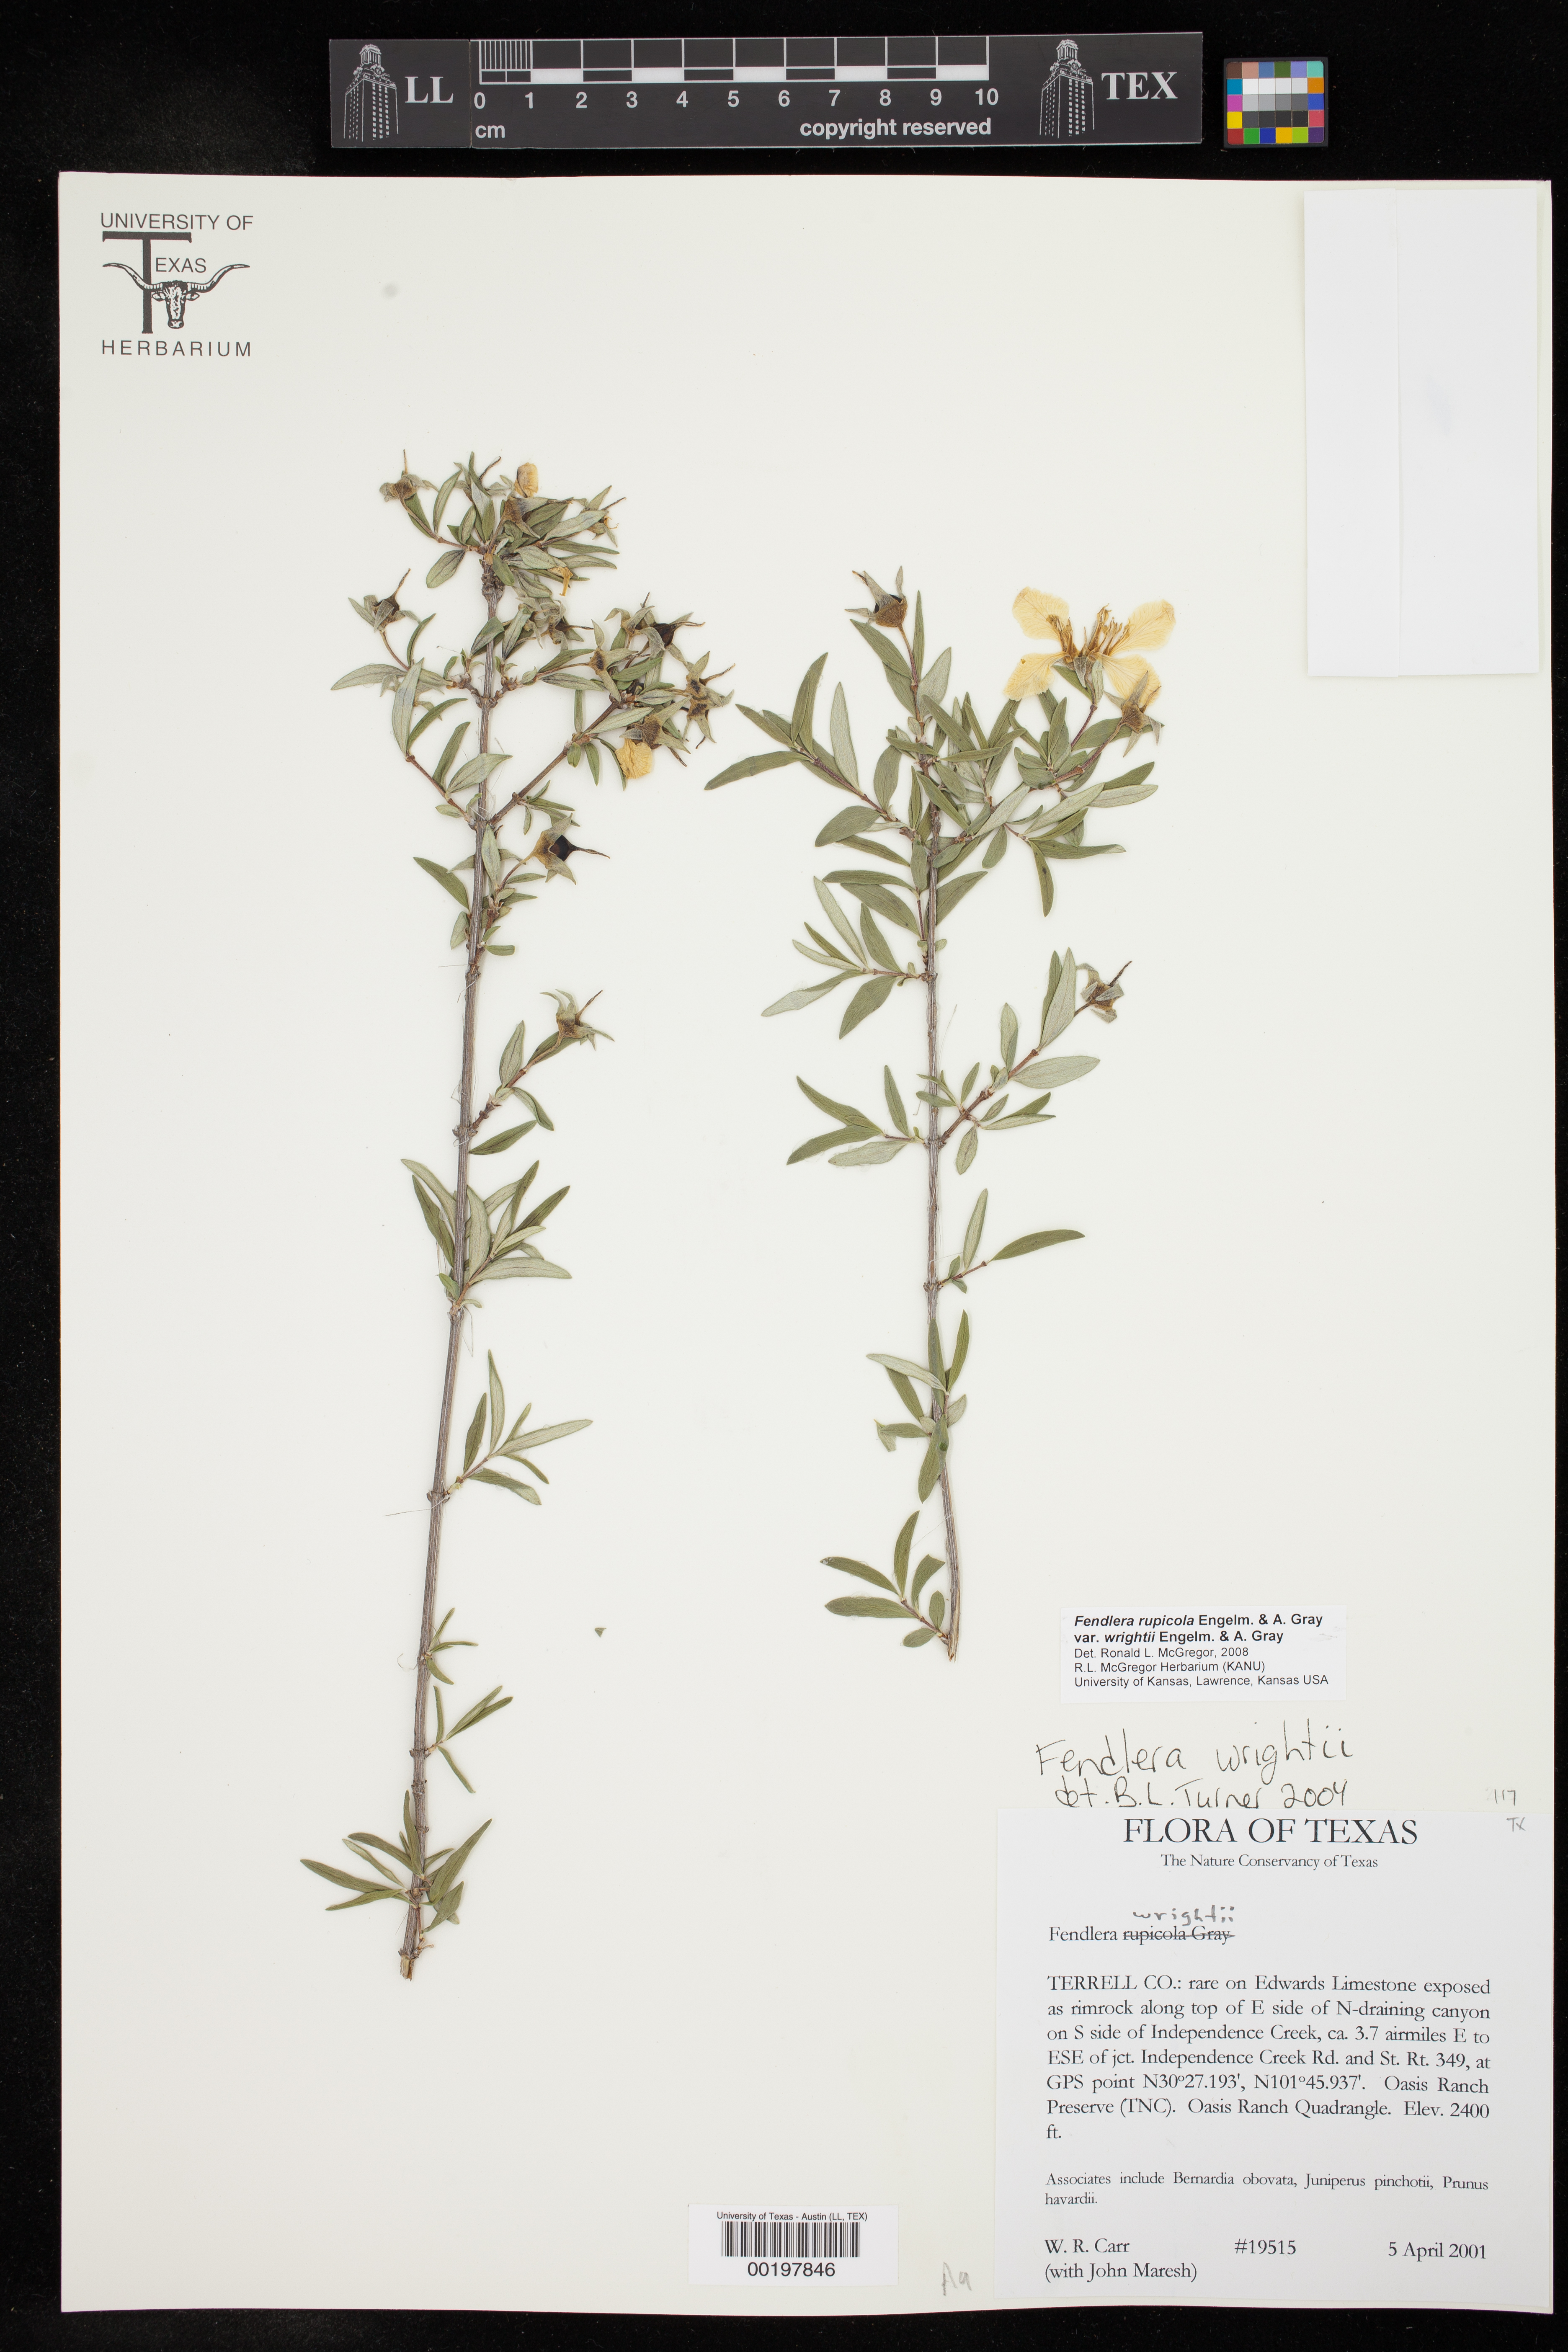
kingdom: Plantae
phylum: Tracheophyta
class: Magnoliopsida
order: Cornales
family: Hydrangeaceae
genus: Fendlera
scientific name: Fendlera wrightii
